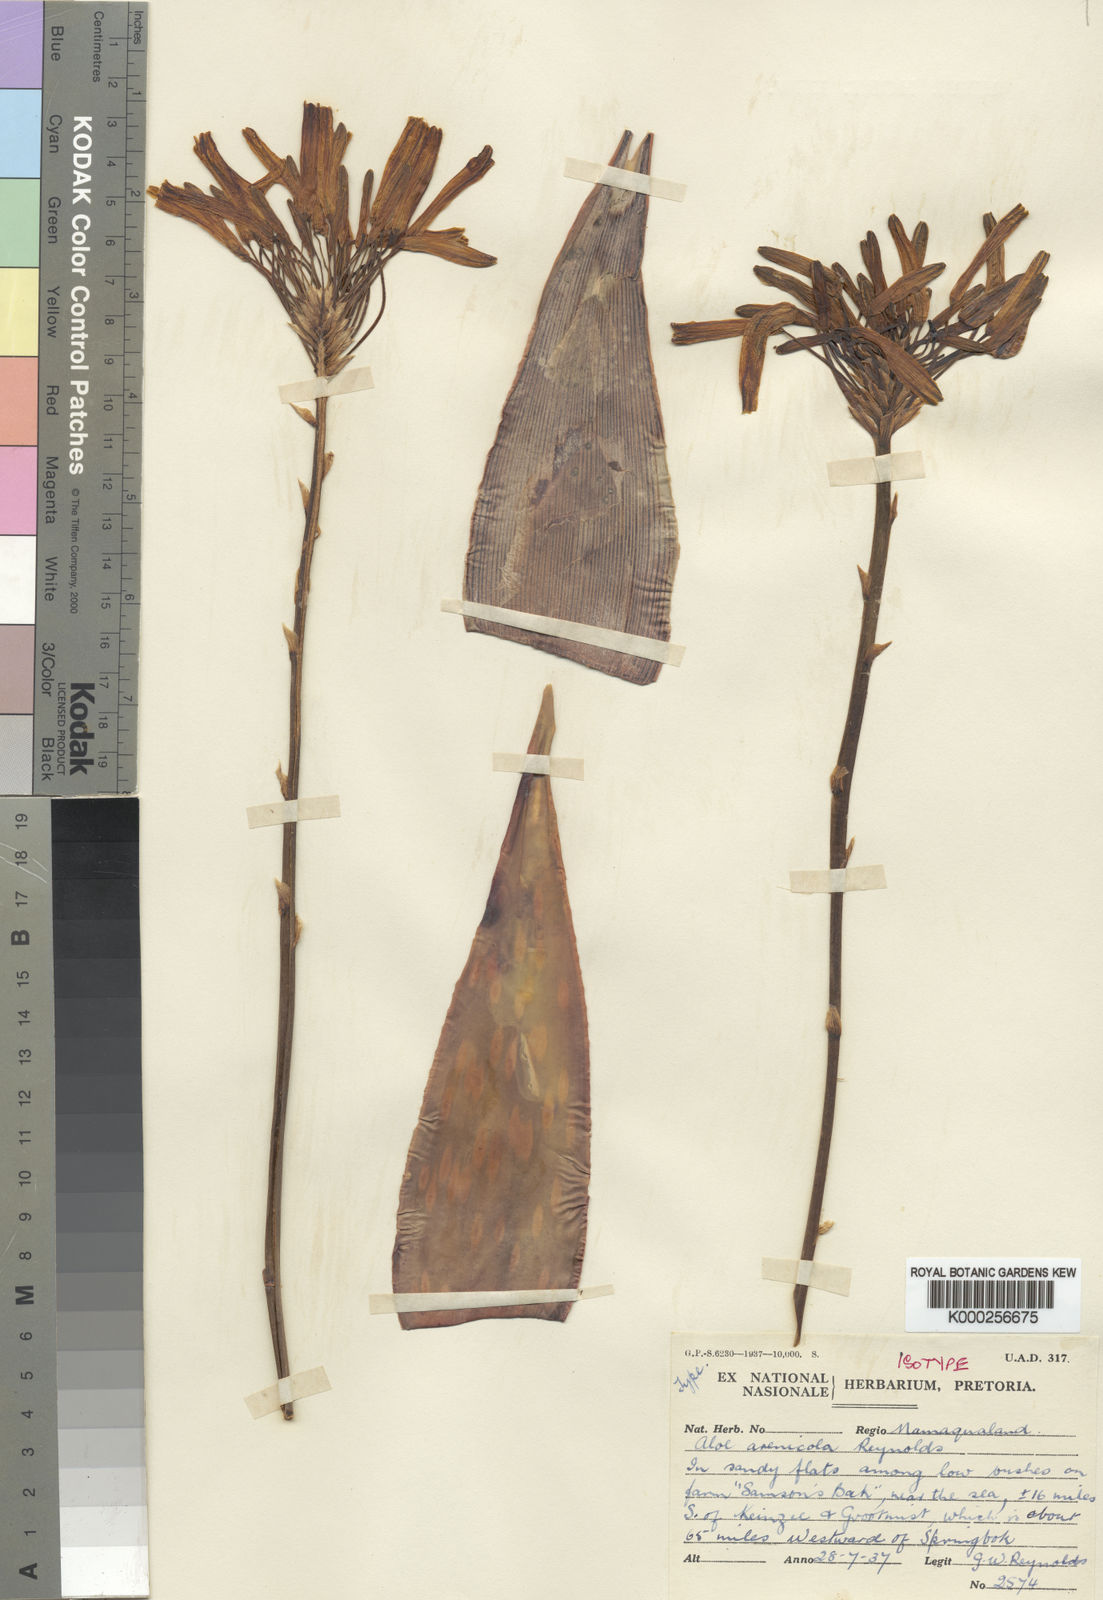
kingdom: Plantae
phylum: Tracheophyta
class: Liliopsida
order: Asparagales
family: Asphodelaceae
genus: Aloe
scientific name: Aloe arenicola
